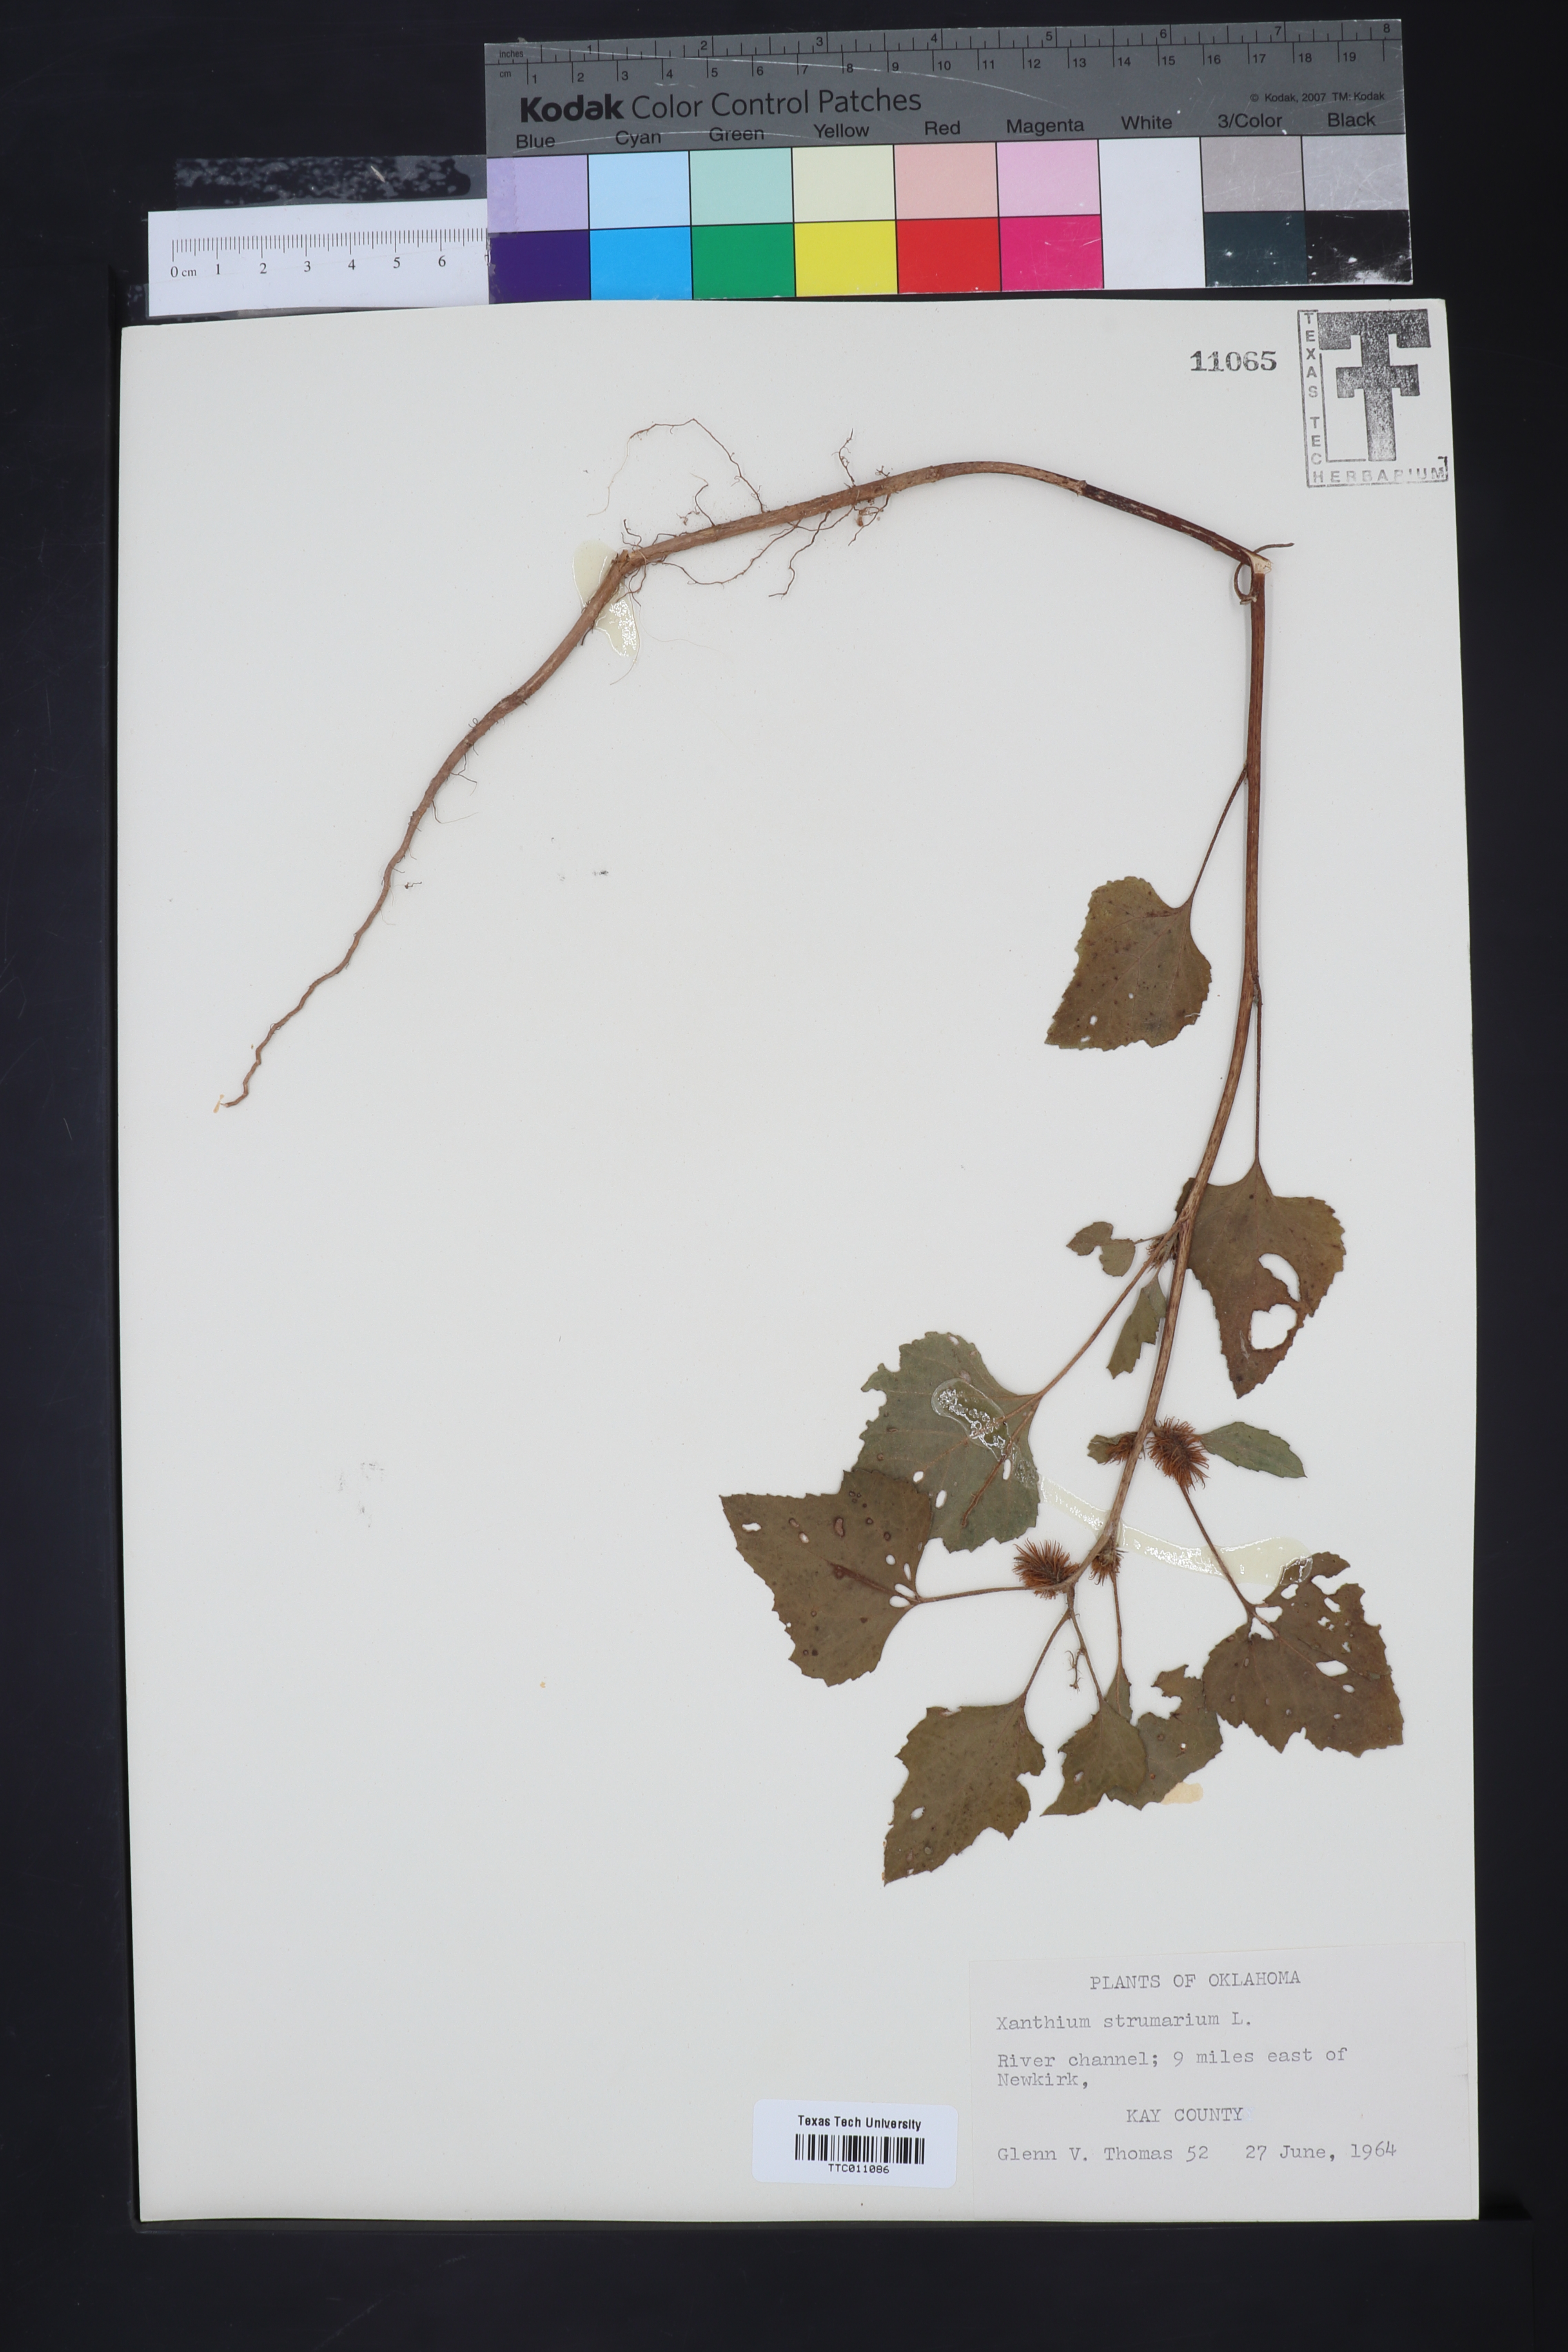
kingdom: Plantae
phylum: Tracheophyta
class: Magnoliopsida
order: Asterales
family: Asteraceae
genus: Xanthium
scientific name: Xanthium strumarium
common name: Rough cocklebur
